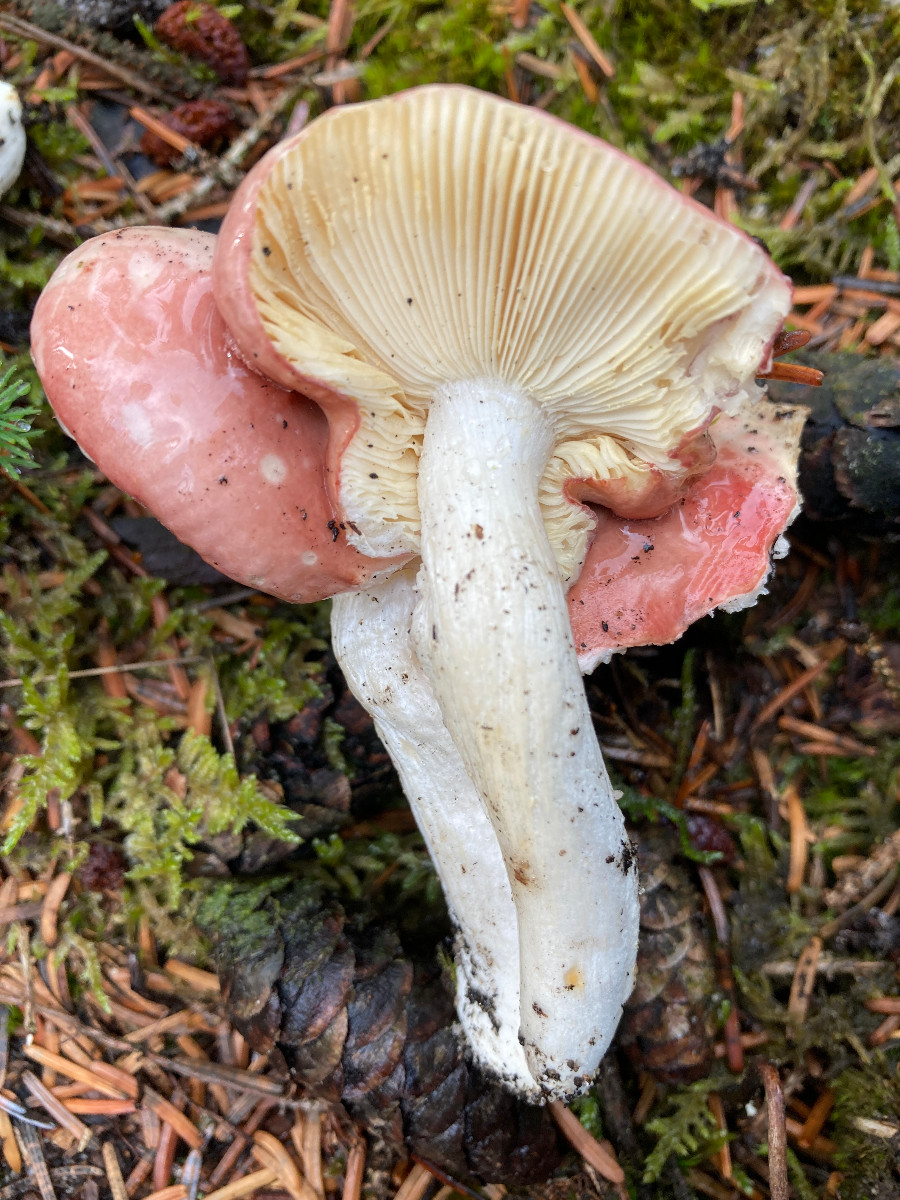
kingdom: Fungi
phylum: Basidiomycota
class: Agaricomycetes
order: Russulales
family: Russulaceae
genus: Russula
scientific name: Russula
